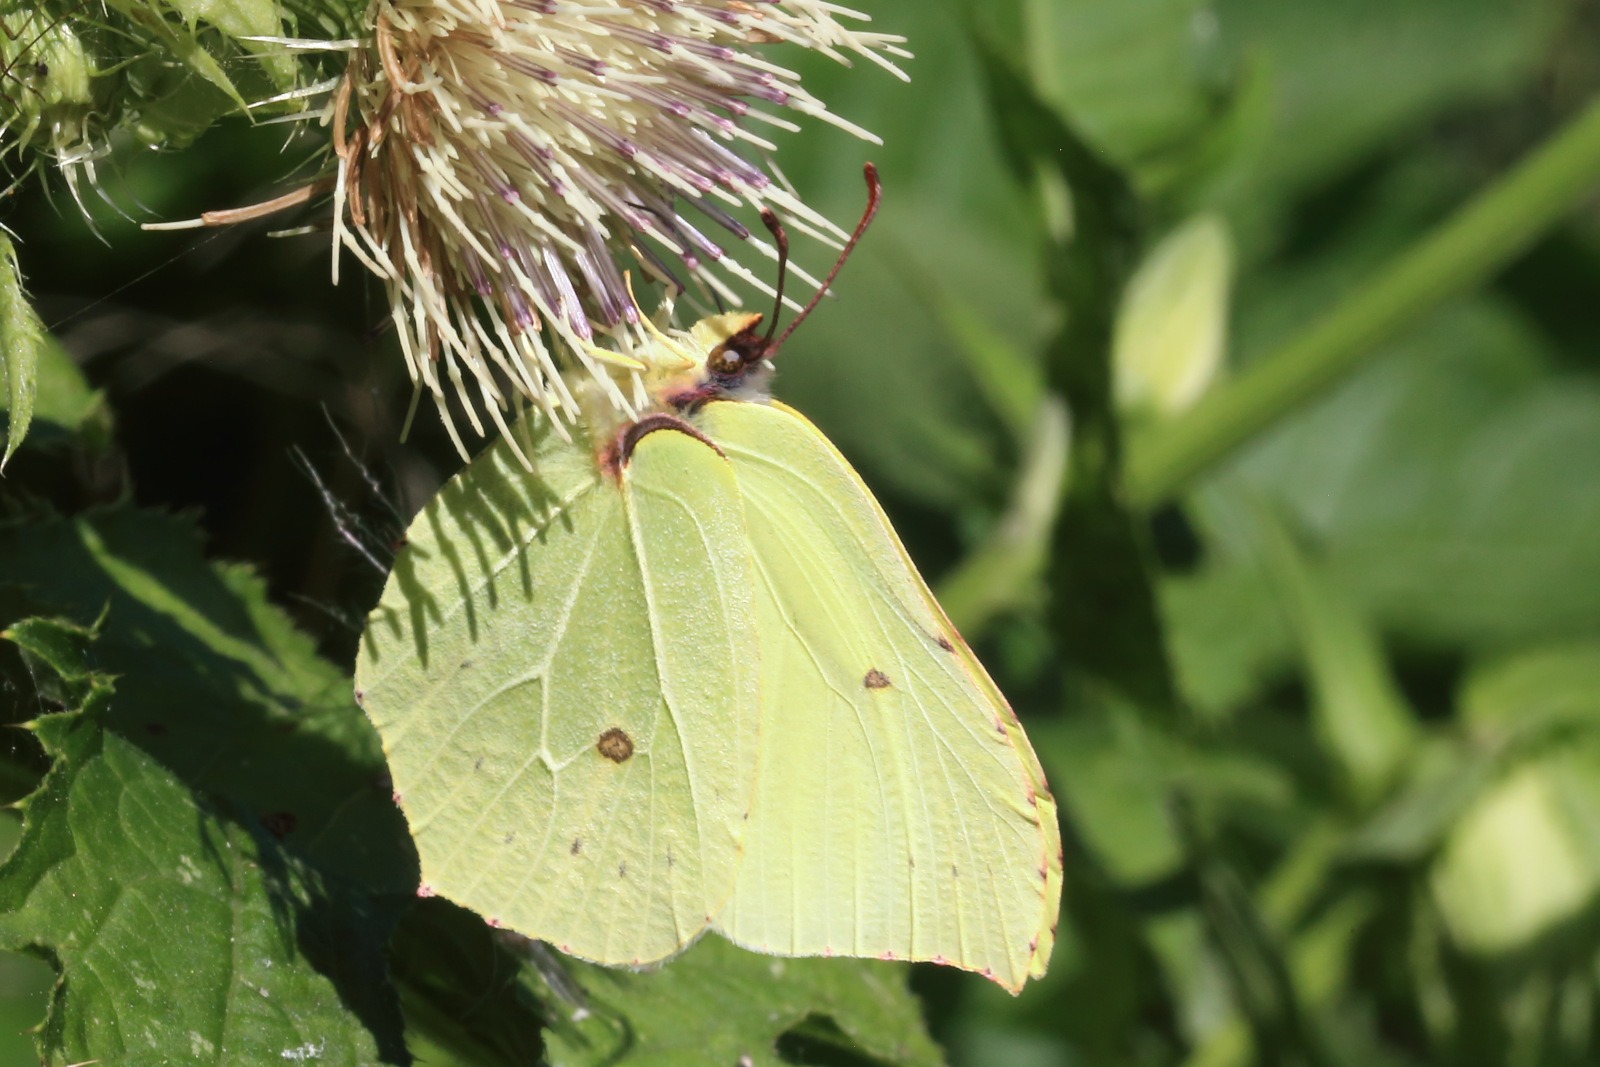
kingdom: Animalia
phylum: Arthropoda
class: Insecta
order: Lepidoptera
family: Pieridae
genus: Gonepteryx
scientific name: Gonepteryx rhamni
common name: Citronsommerfugl
